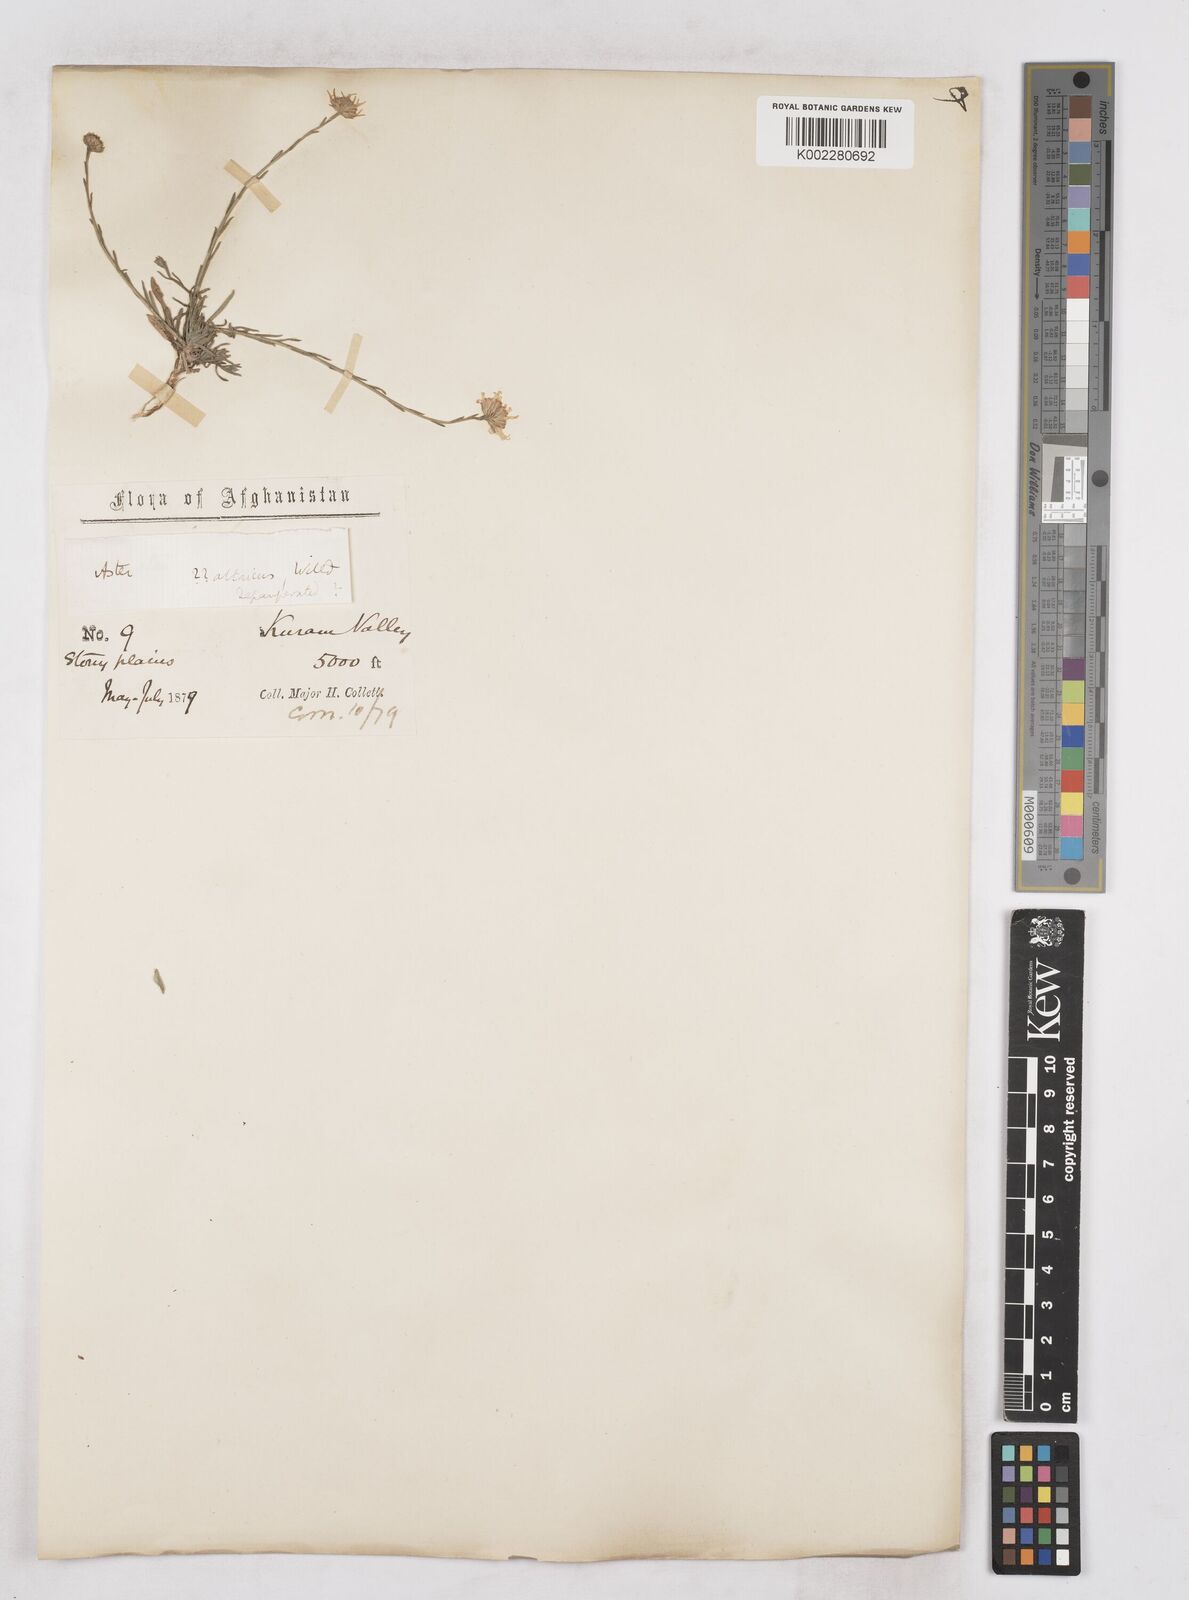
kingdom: Plantae
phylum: Tracheophyta
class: Magnoliopsida
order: Asterales
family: Asteraceae
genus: Heteropappus
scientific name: Heteropappus altaicus
